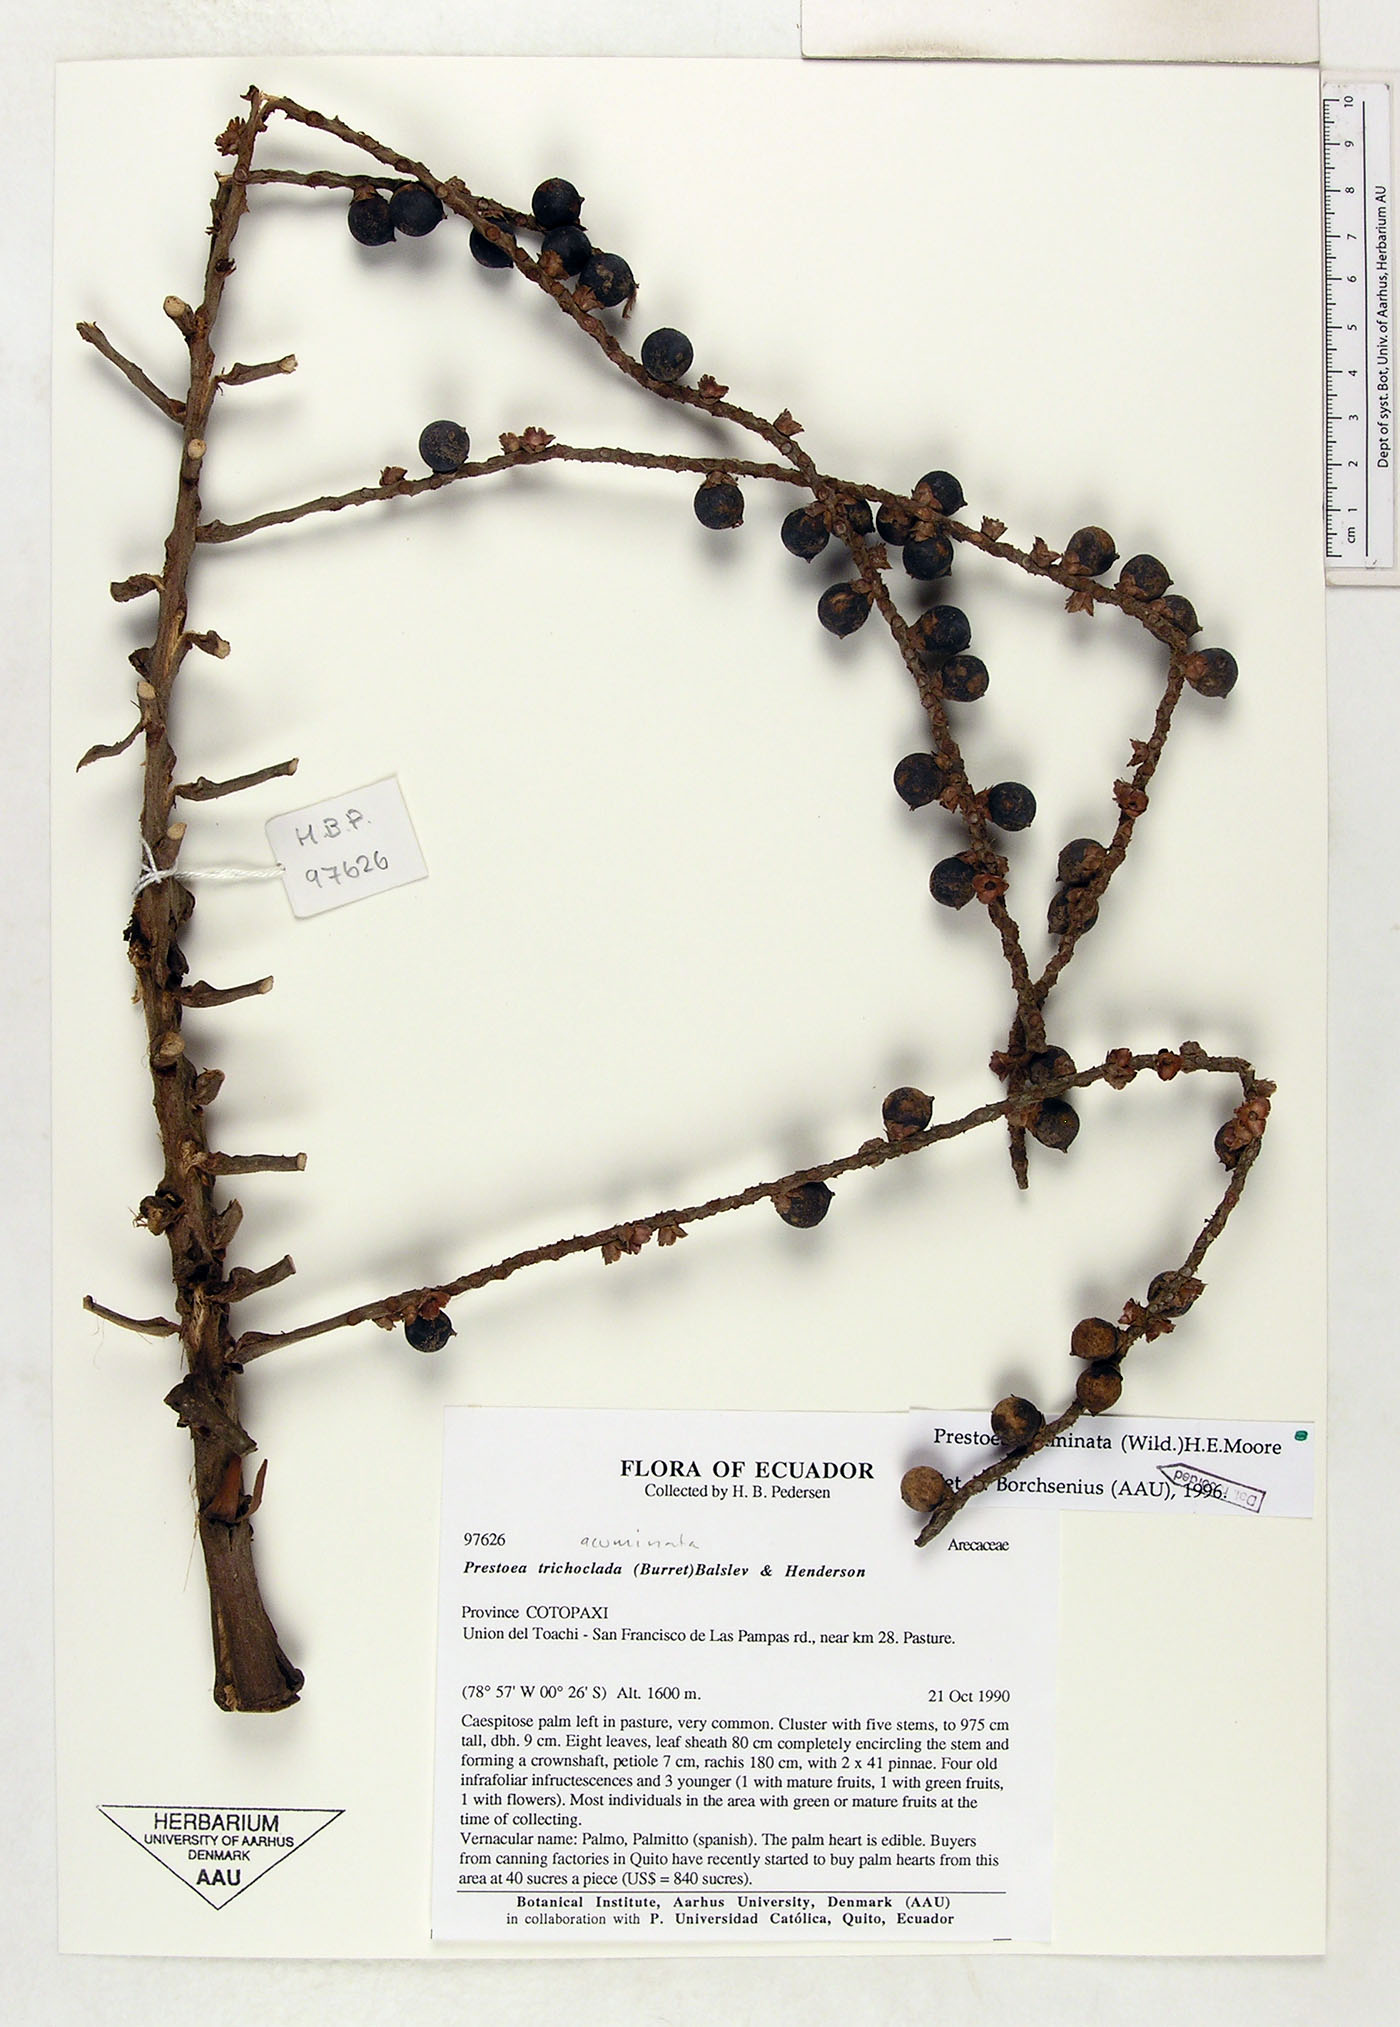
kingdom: Plantae
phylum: Tracheophyta
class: Liliopsida
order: Arecales
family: Arecaceae
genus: Prestoea
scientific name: Prestoea acuminata
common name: Sierran palm
